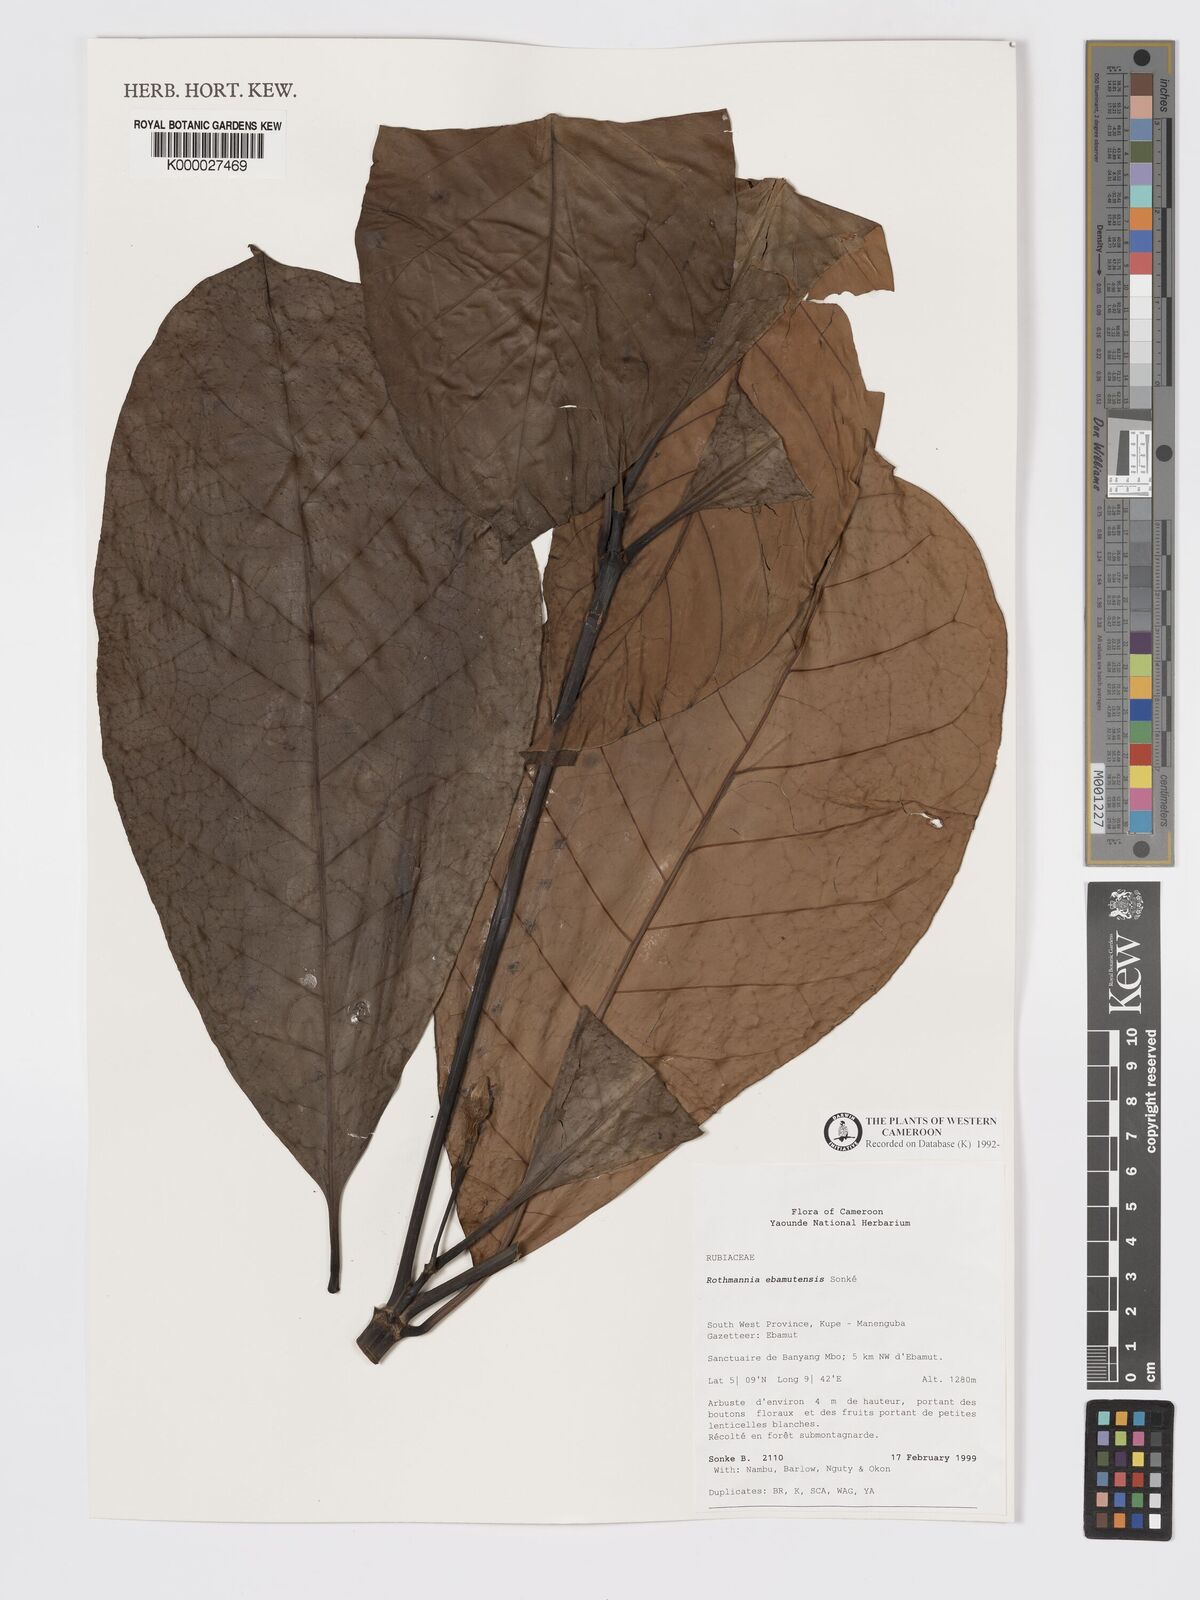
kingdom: Plantae
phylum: Tracheophyta
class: Magnoliopsida
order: Gentianales
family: Rubiaceae
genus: Rothmannia
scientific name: Rothmannia
